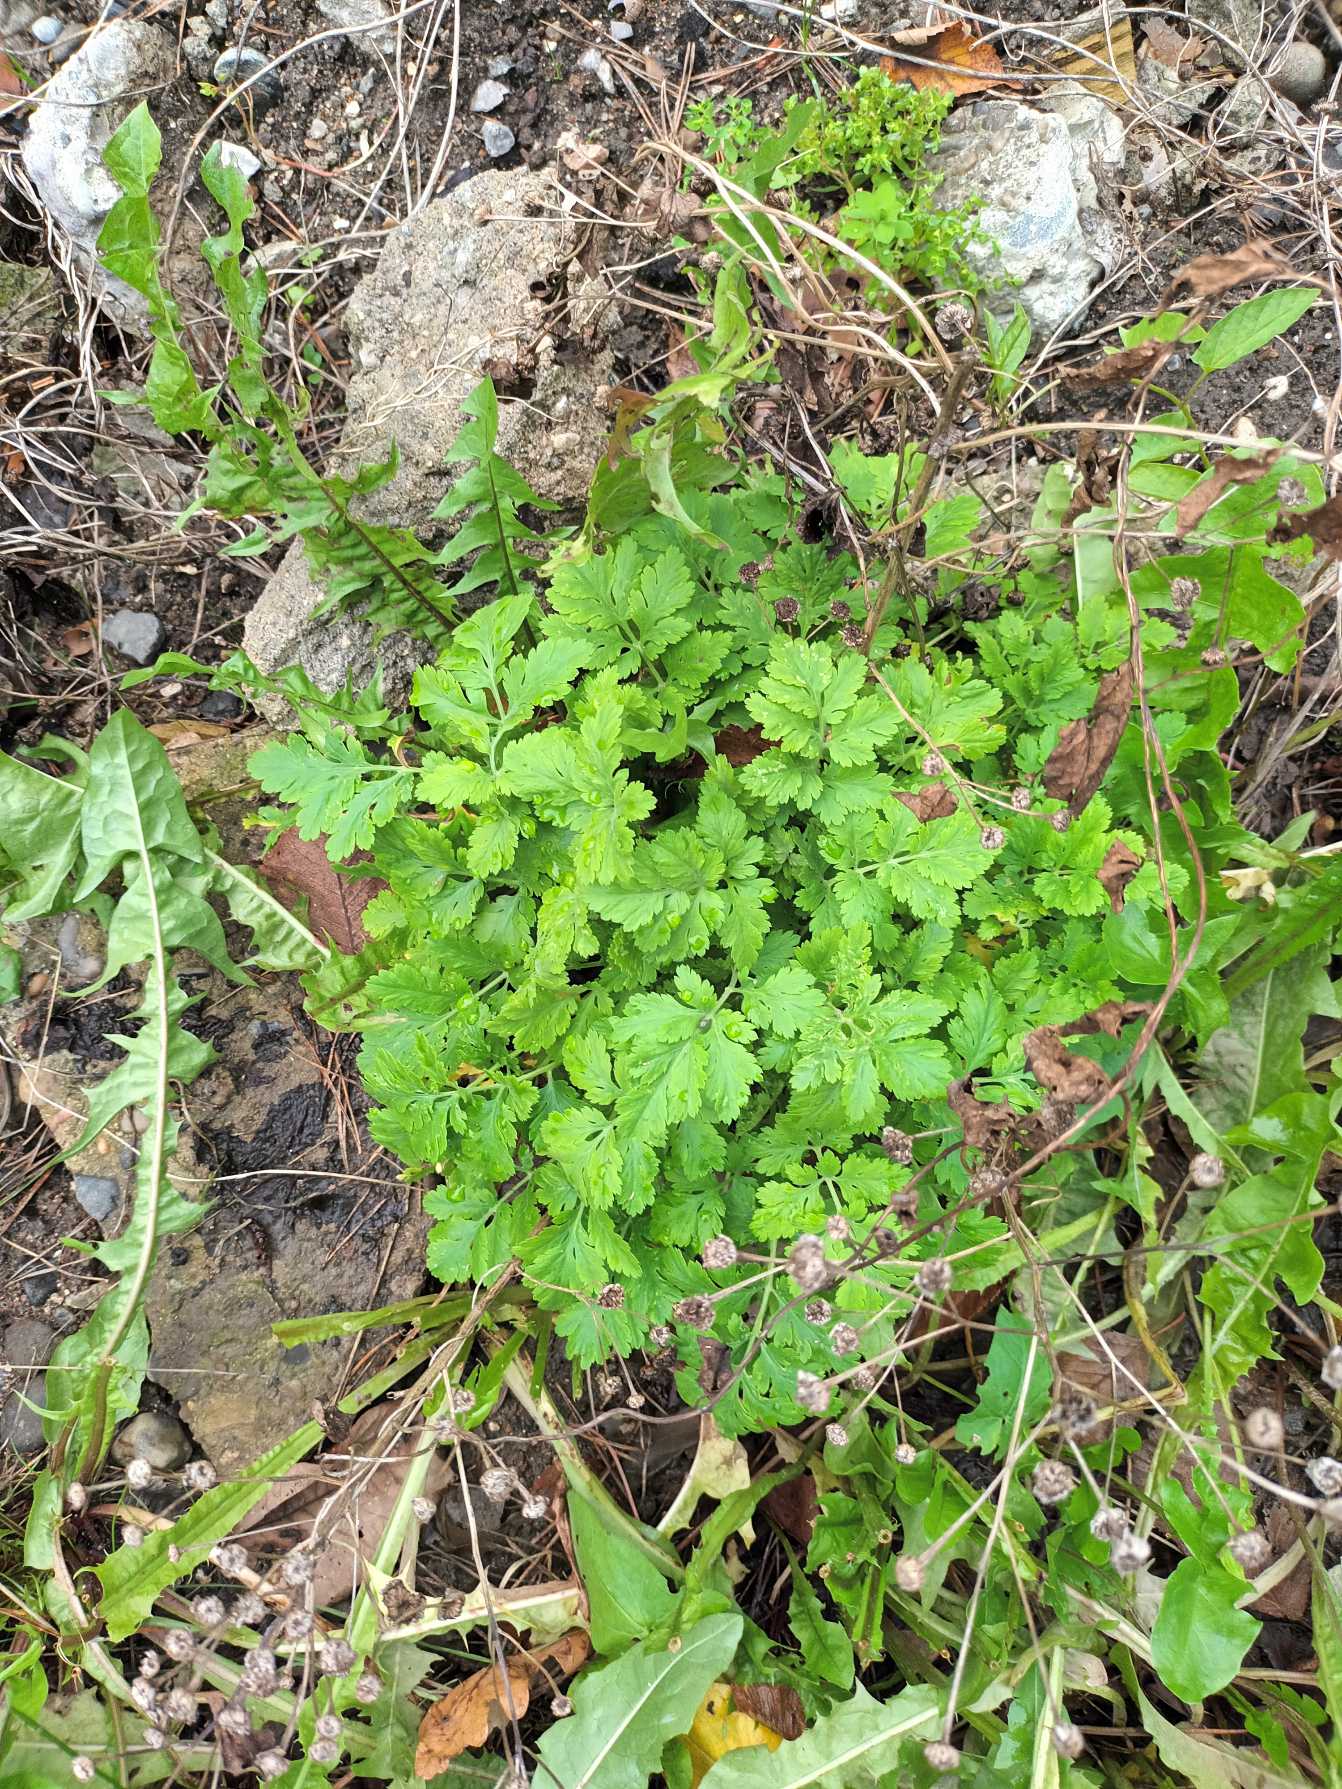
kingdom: Plantae
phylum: Tracheophyta
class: Magnoliopsida
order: Asterales
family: Asteraceae
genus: Tanacetum
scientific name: Tanacetum parthenium
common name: Matrem
